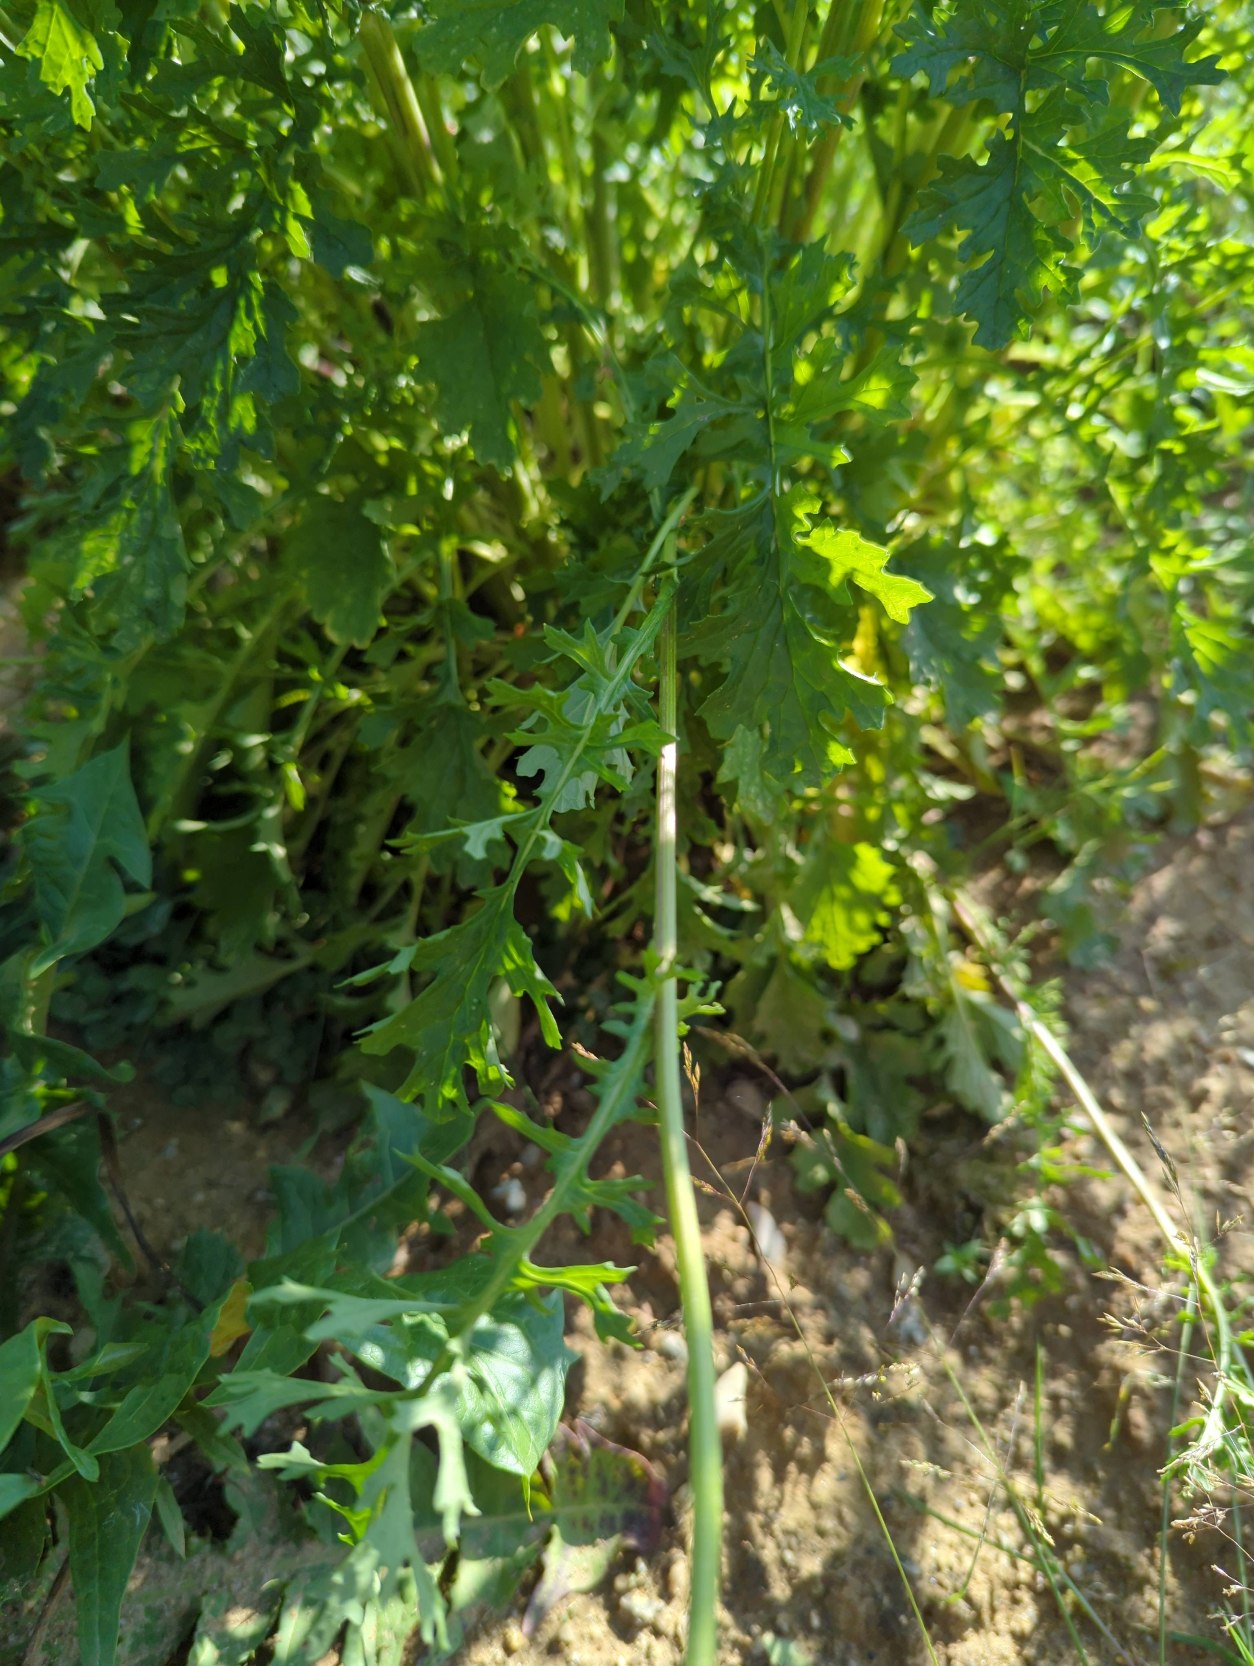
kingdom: Plantae
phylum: Tracheophyta
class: Magnoliopsida
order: Asterales
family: Asteraceae
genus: Jacobaea
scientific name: Jacobaea vulgaris
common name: Eng-brandbæger
